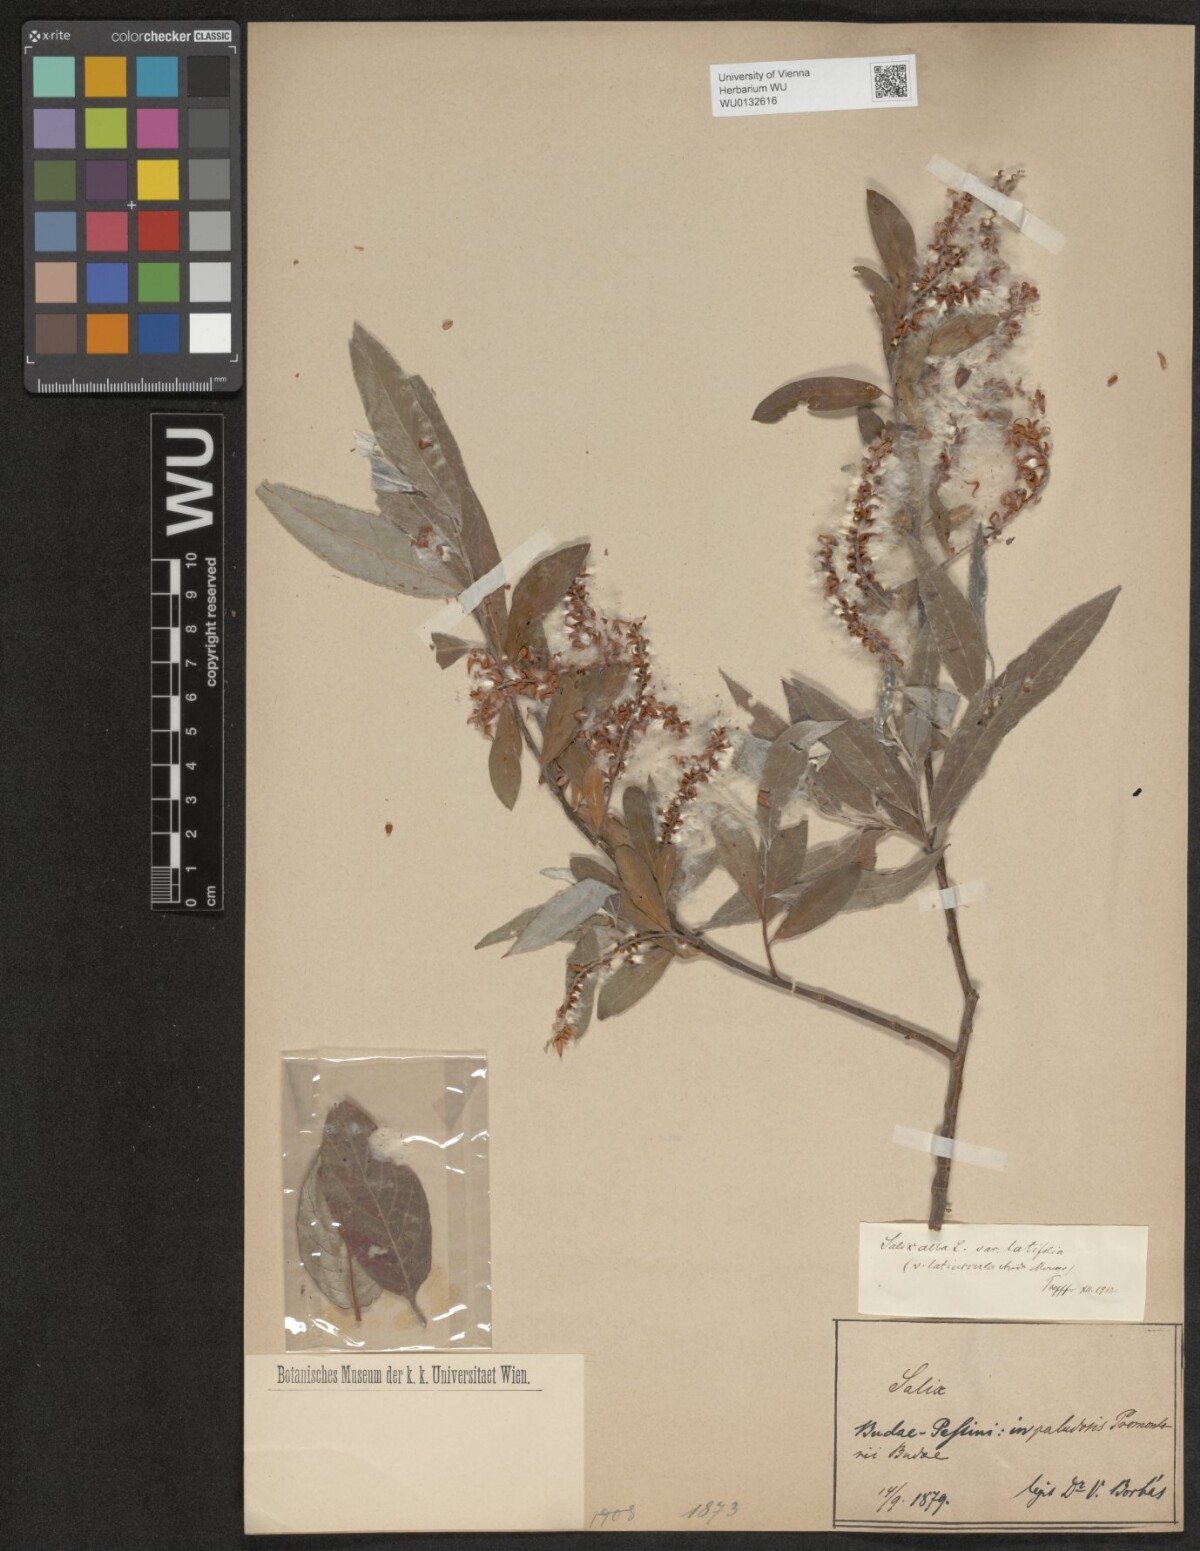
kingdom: Plantae
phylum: Tracheophyta
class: Magnoliopsida
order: Malpighiales
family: Salicaceae
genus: Salix
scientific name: Salix alba
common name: White willow
